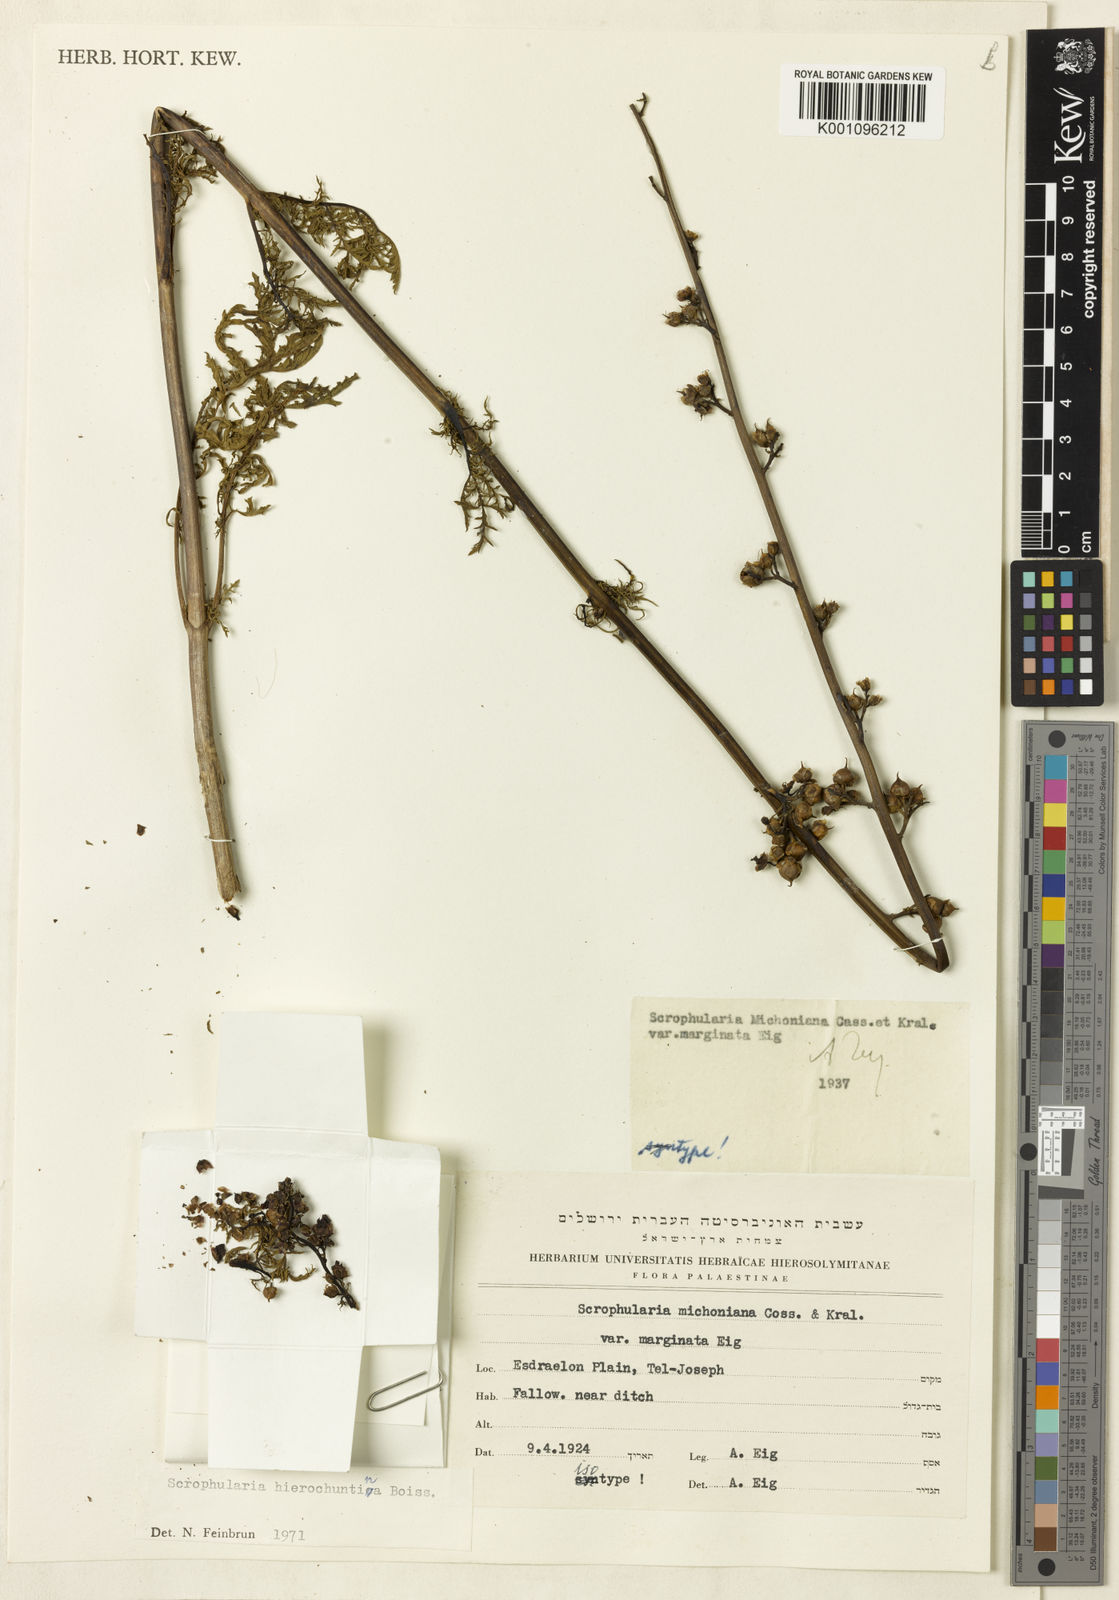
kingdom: Plantae
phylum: Tracheophyta
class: Magnoliopsida
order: Lamiales
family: Scrophulariaceae
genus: Scrophularia
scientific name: Scrophularia rubricaulis
